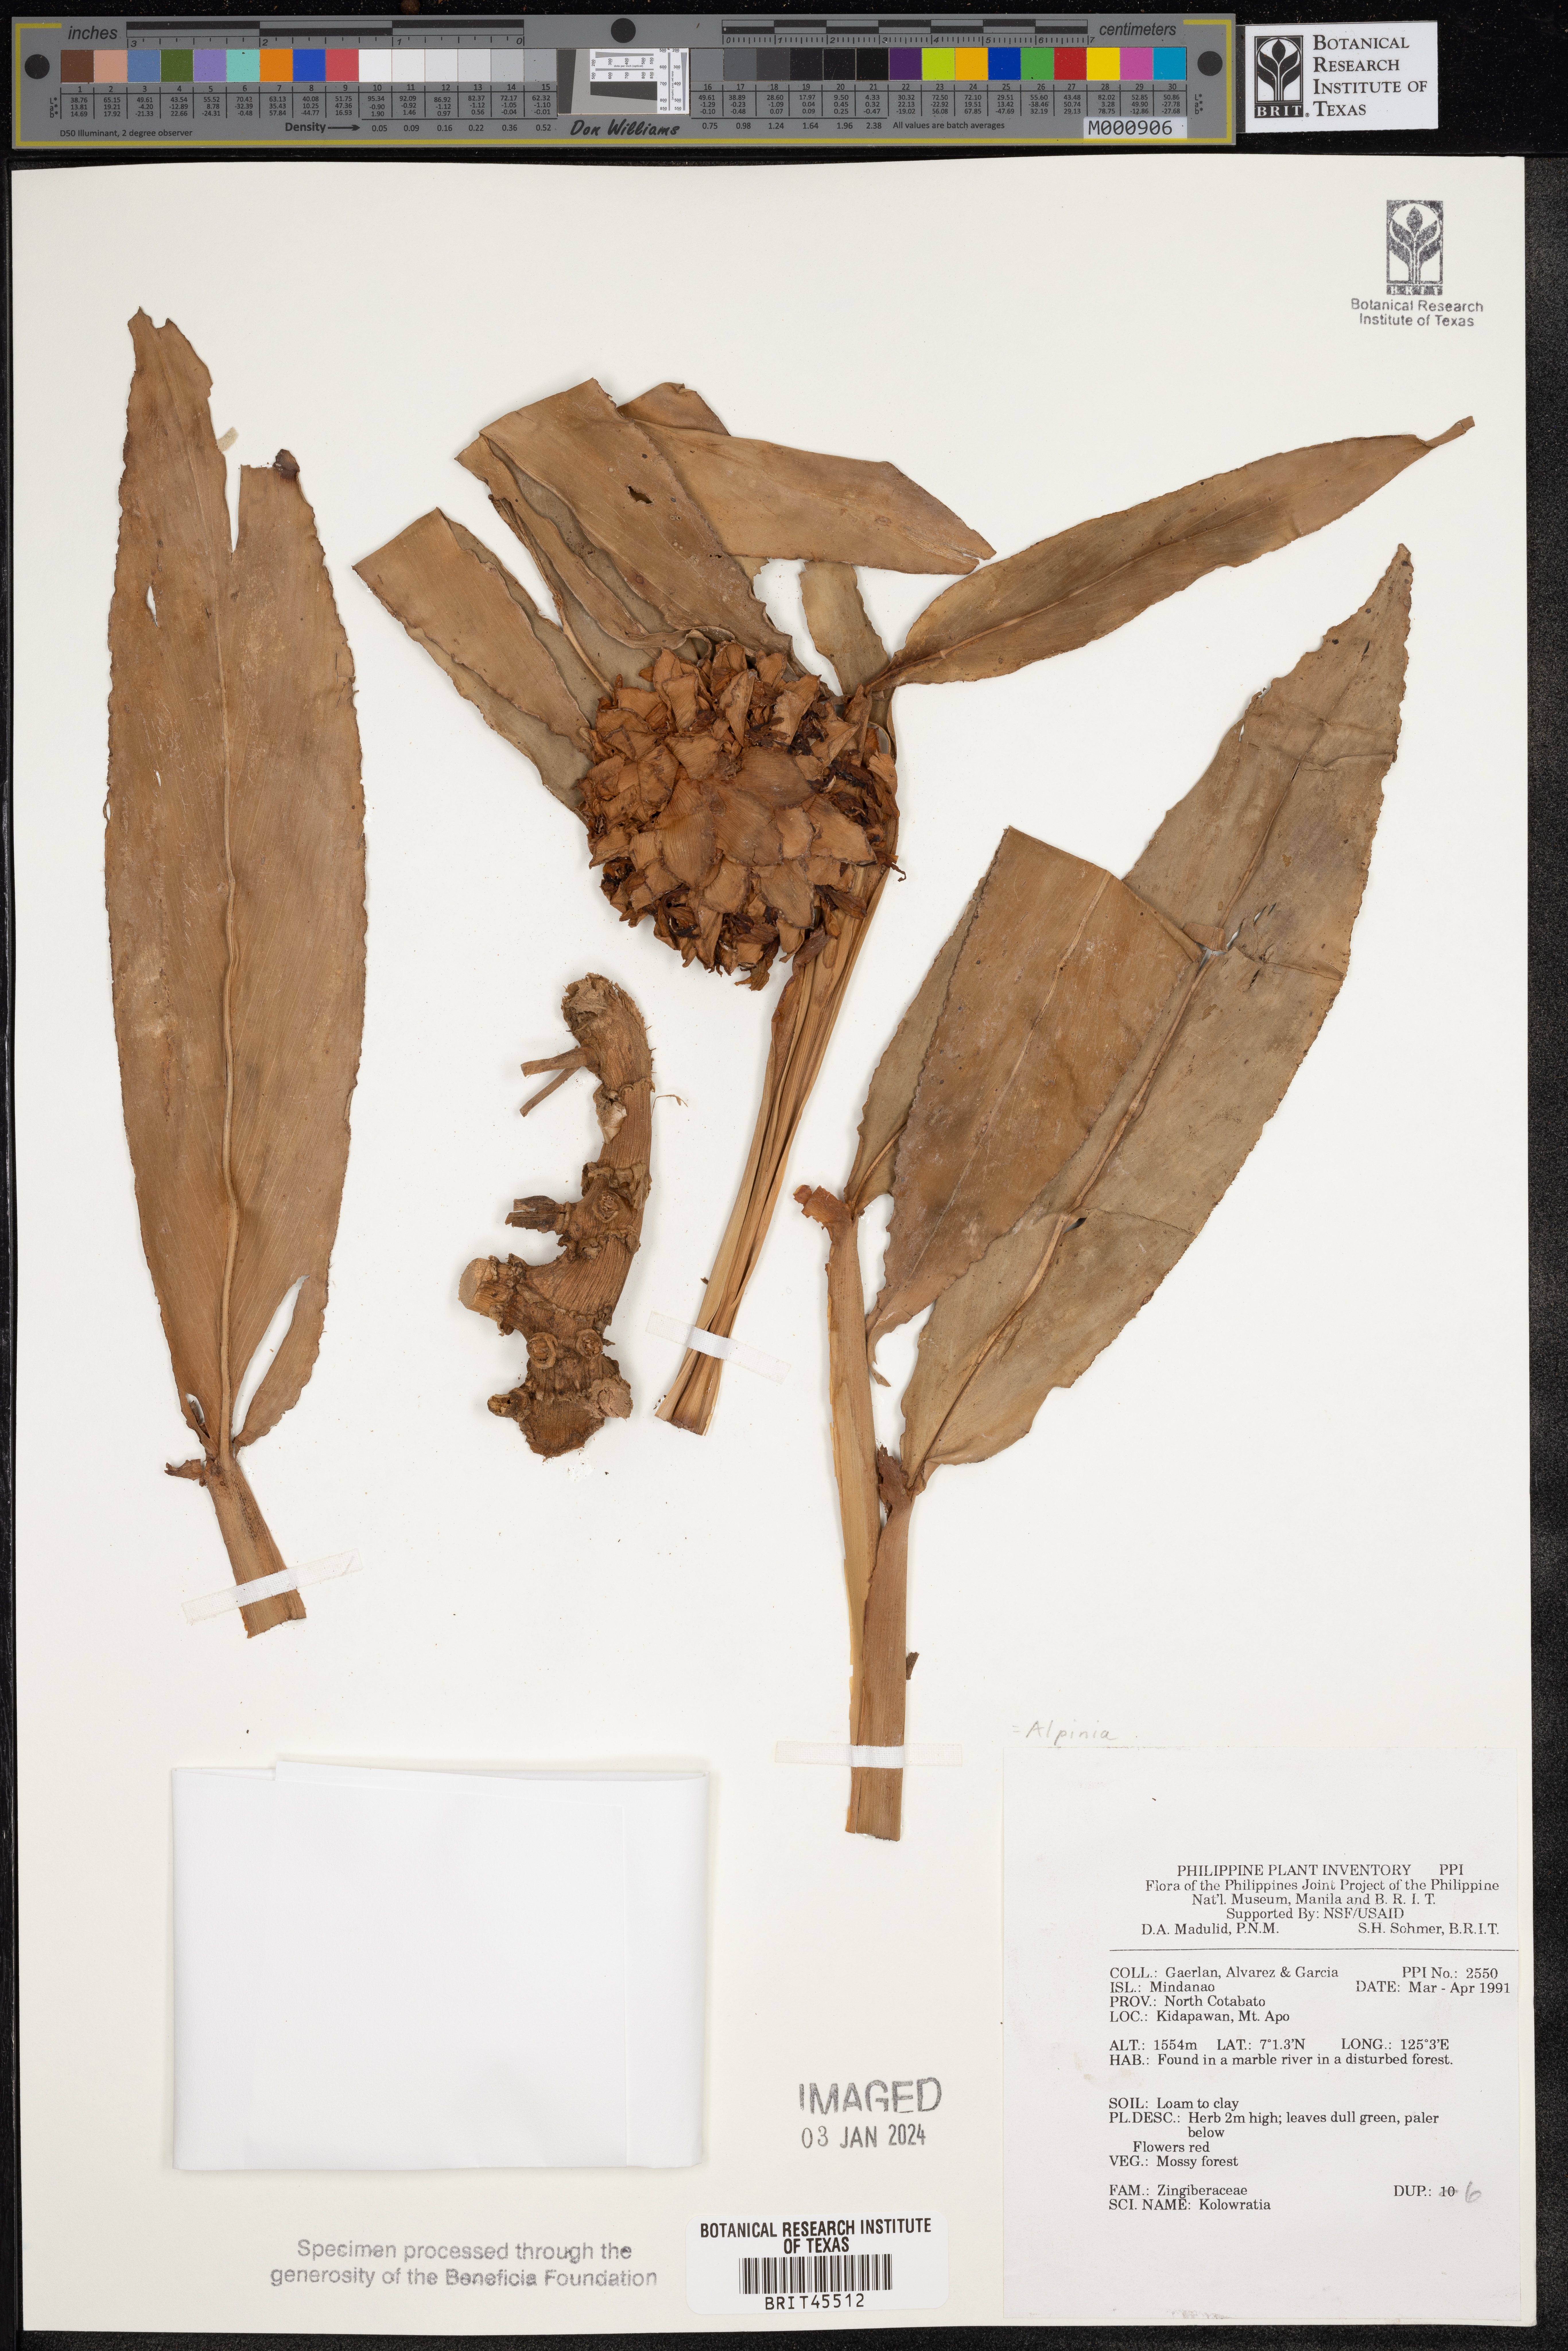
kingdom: Plantae
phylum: Tracheophyta
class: Liliopsida
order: Zingiberales
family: Zingiberaceae
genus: Alpinia
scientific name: Alpinia
